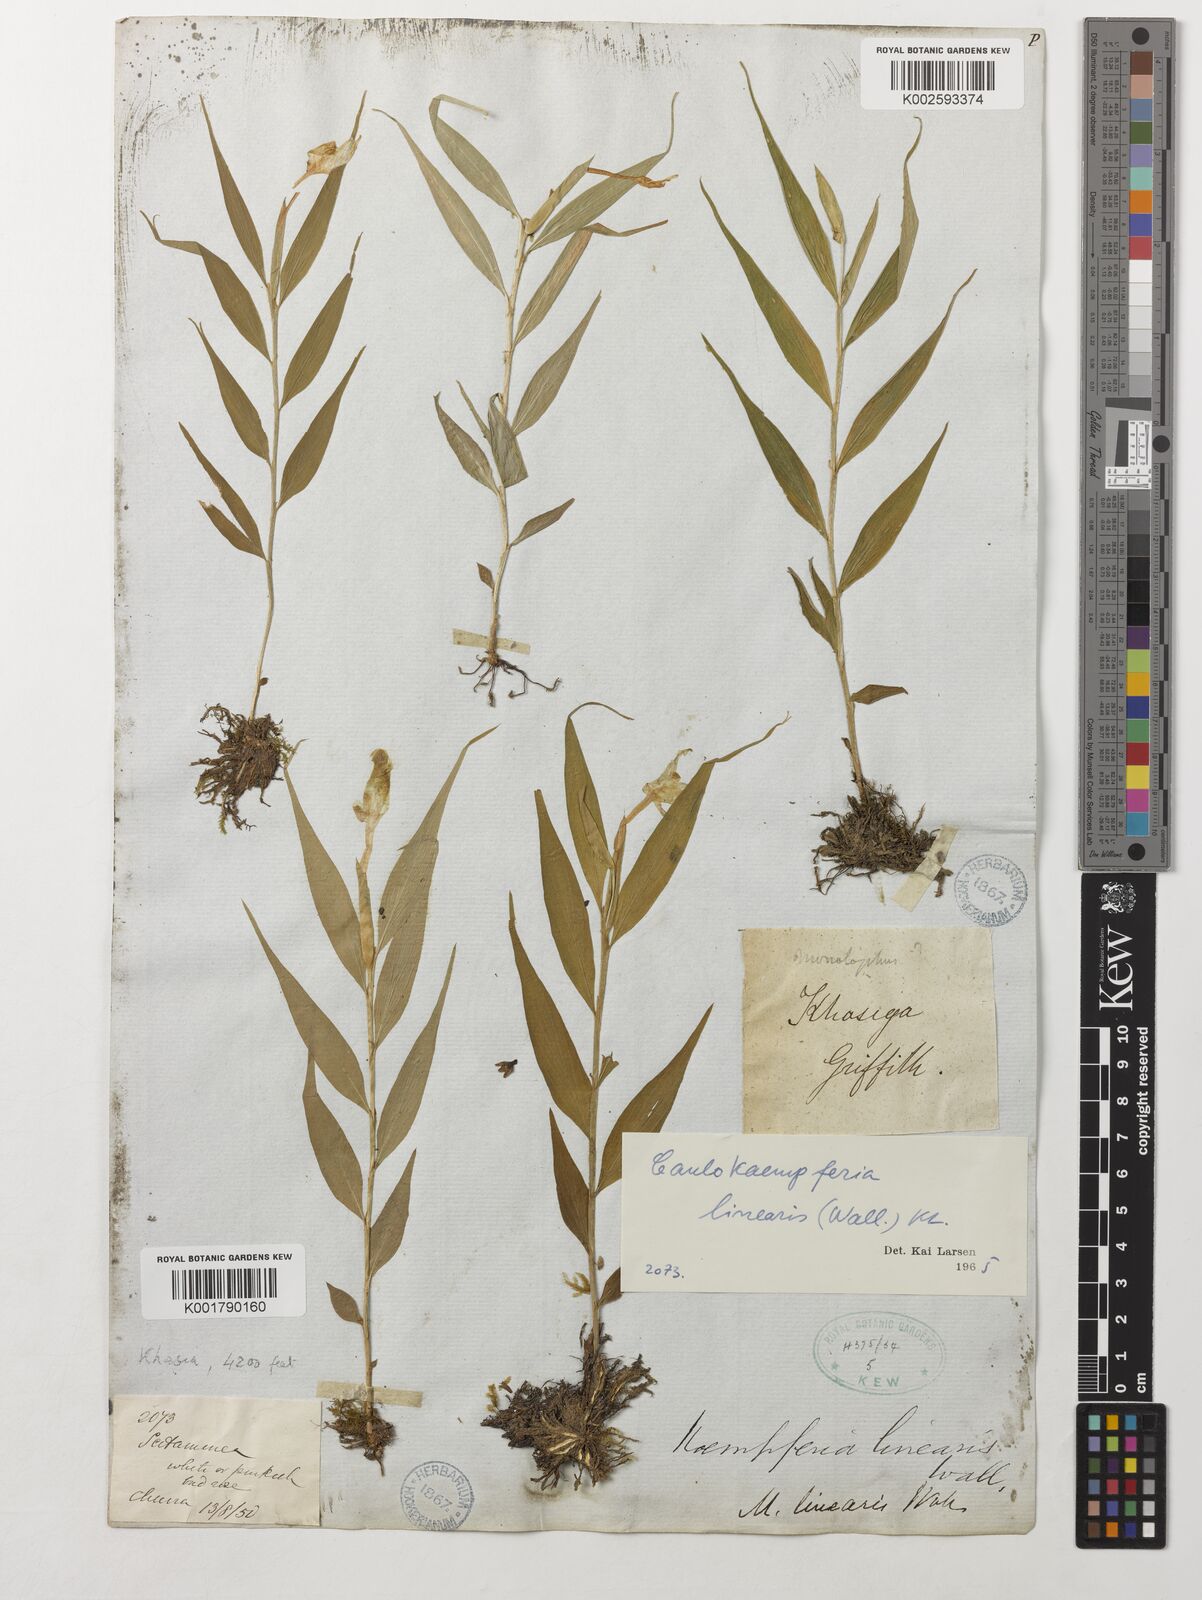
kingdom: Plantae
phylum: Tracheophyta
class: Liliopsida
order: Zingiberales
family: Zingiberaceae
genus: Caulokaempferia
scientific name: Caulokaempferia linearis
